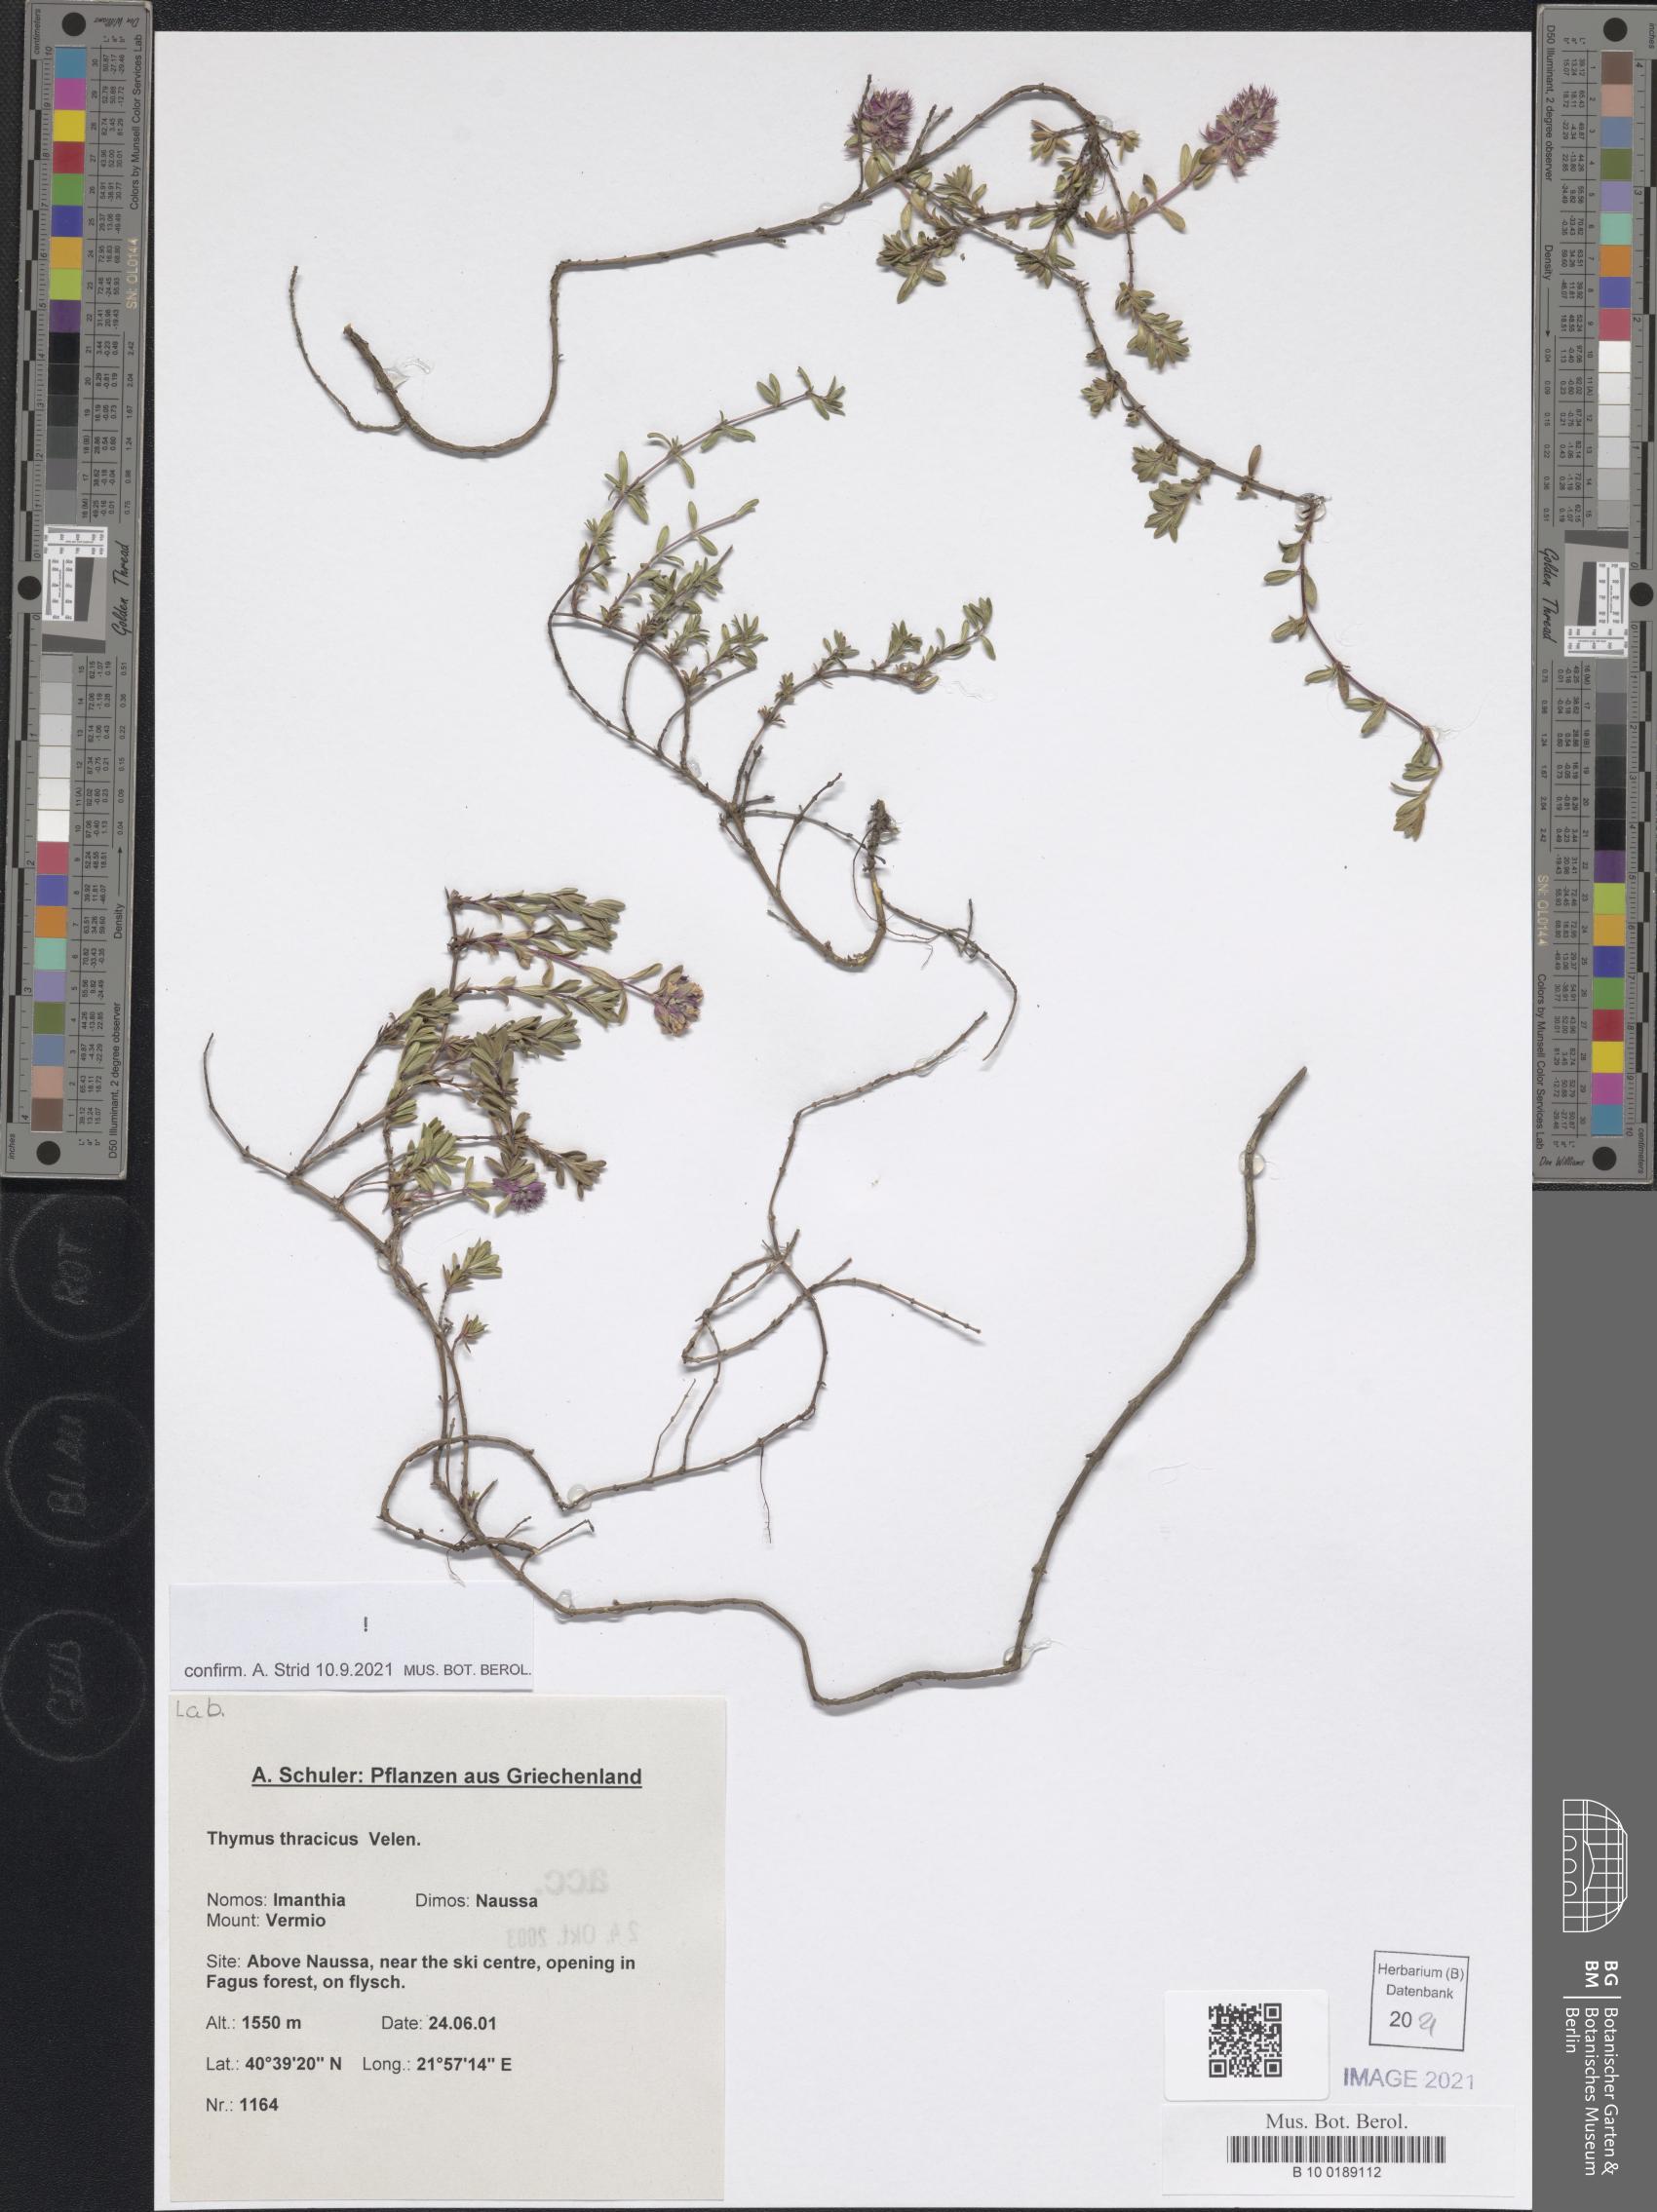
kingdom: Plantae
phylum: Tracheophyta
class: Magnoliopsida
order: Lamiales
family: Lamiaceae
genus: Thymus
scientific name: Thymus thracicus
